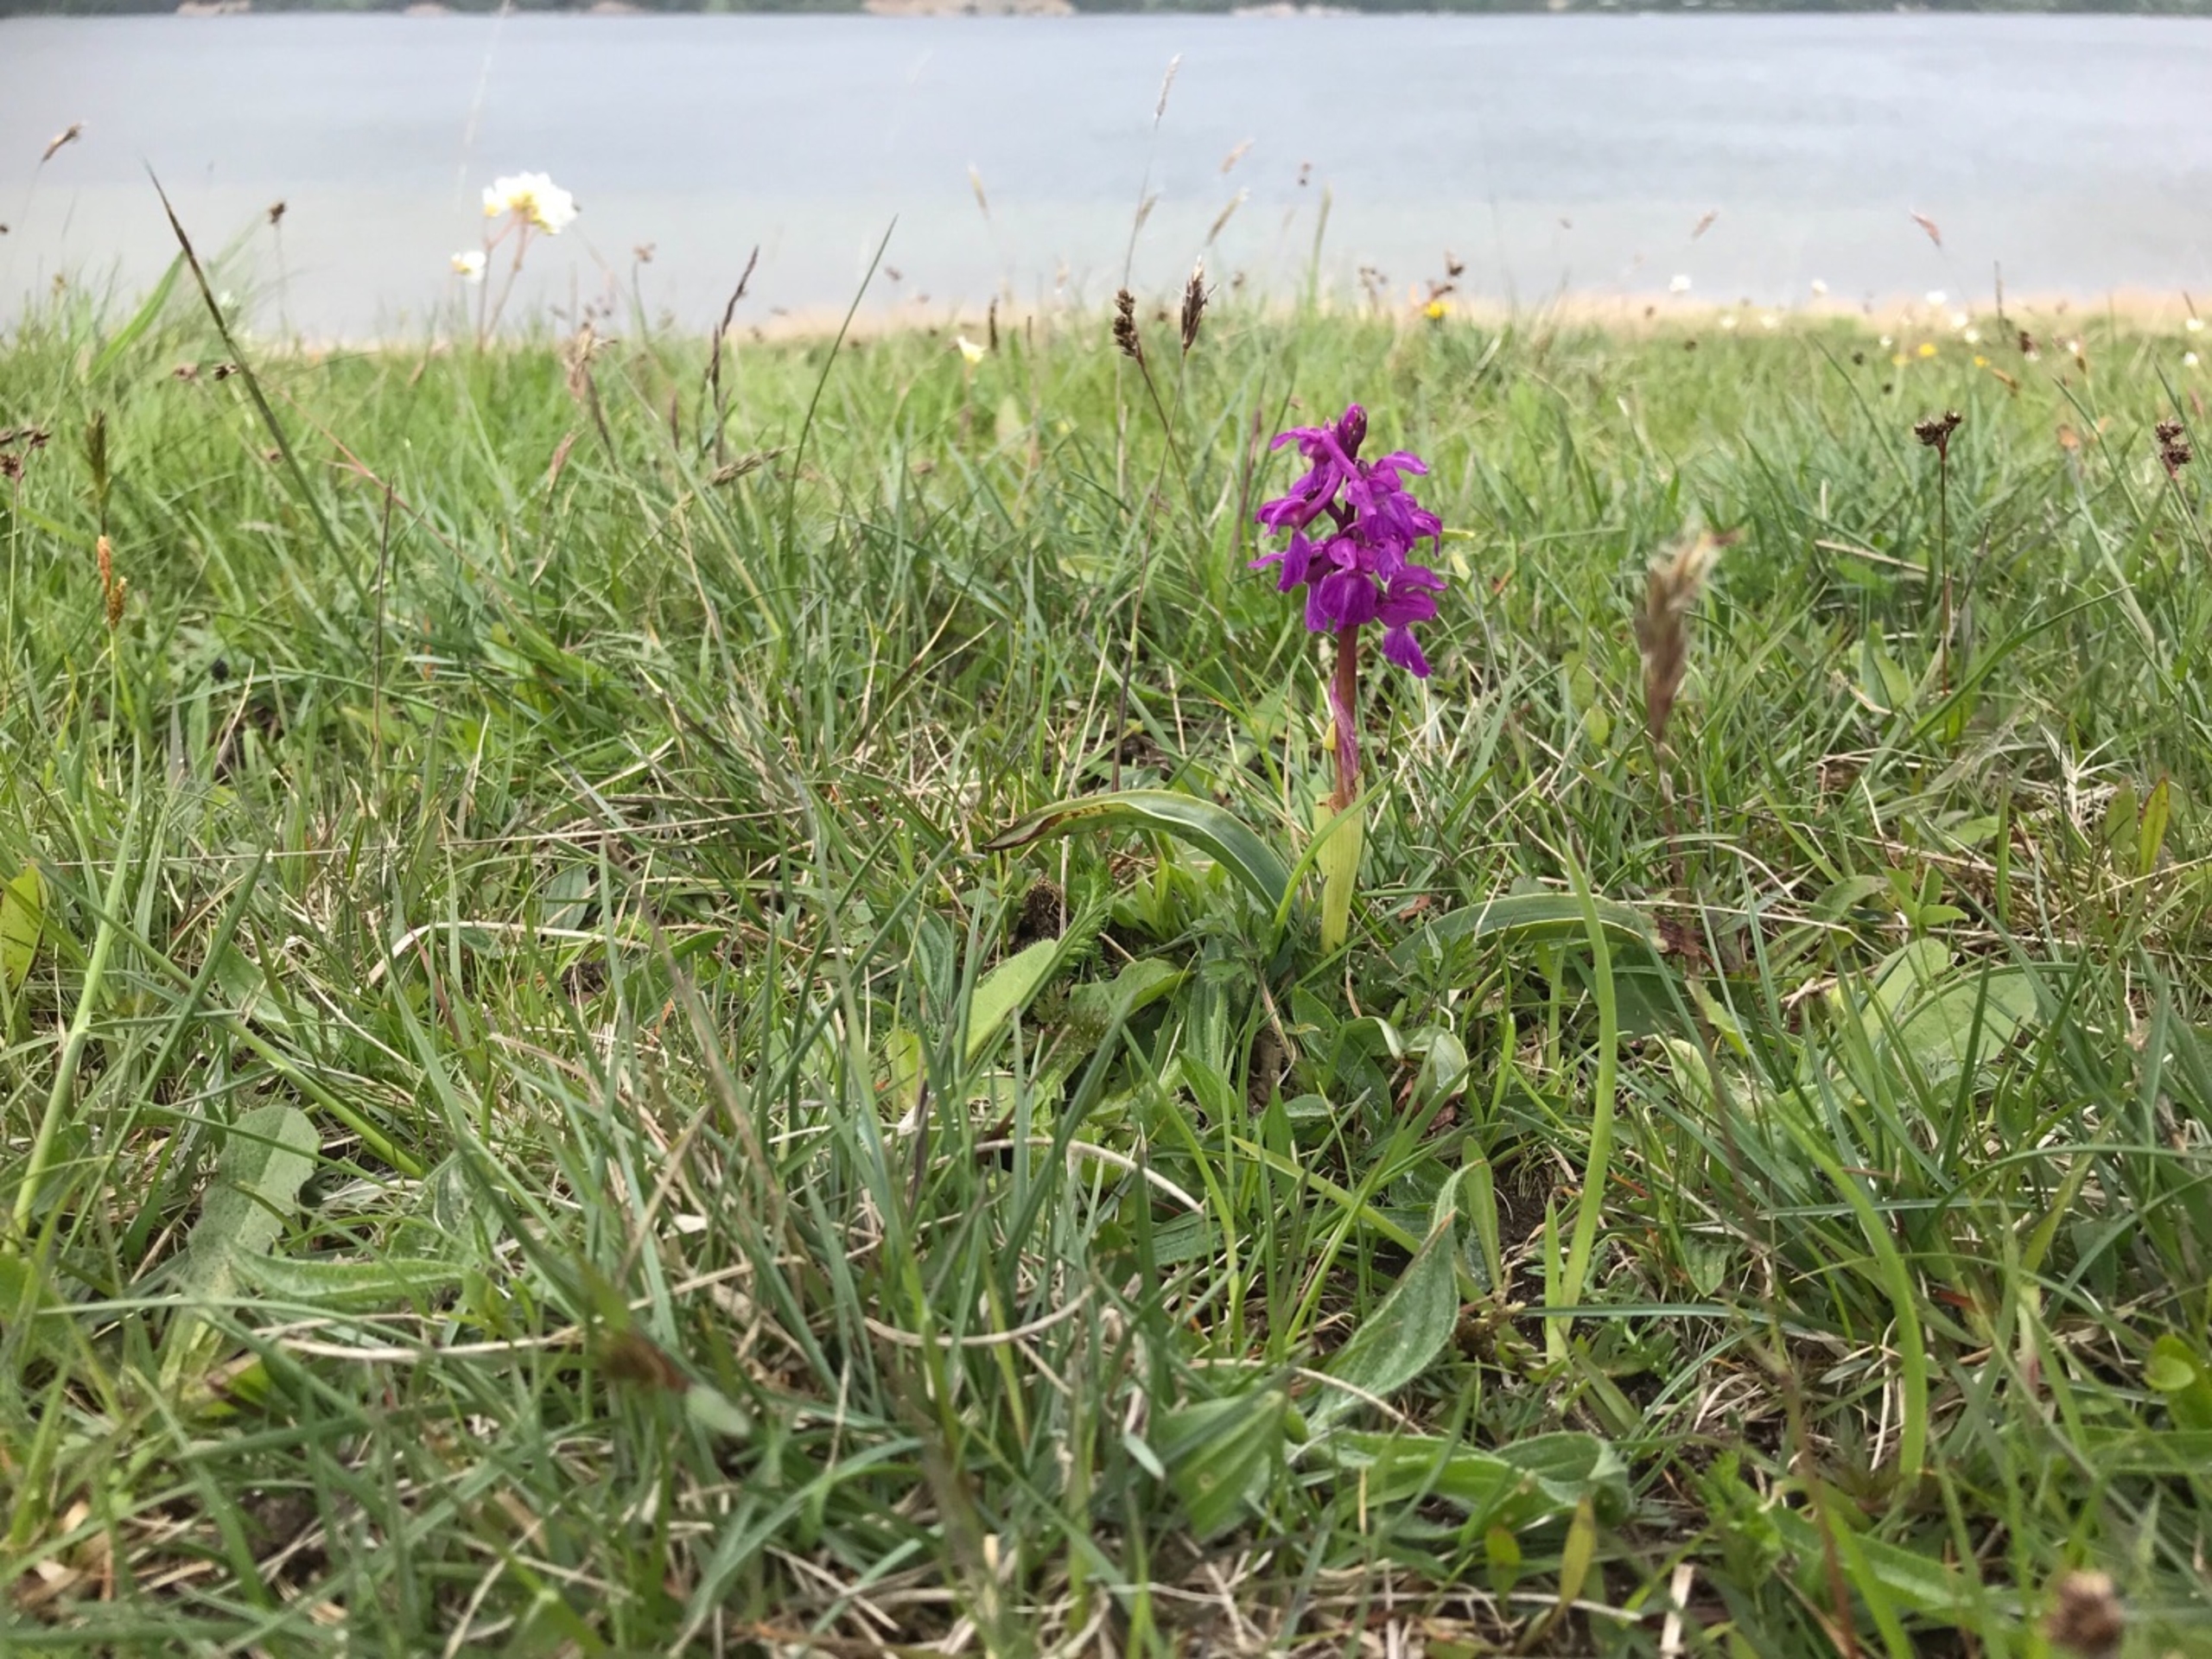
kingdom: Plantae
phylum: Tracheophyta
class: Liliopsida
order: Asparagales
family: Orchidaceae
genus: Dactylorhiza
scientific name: Dactylorhiza majalis
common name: Maj-gøgeurt
